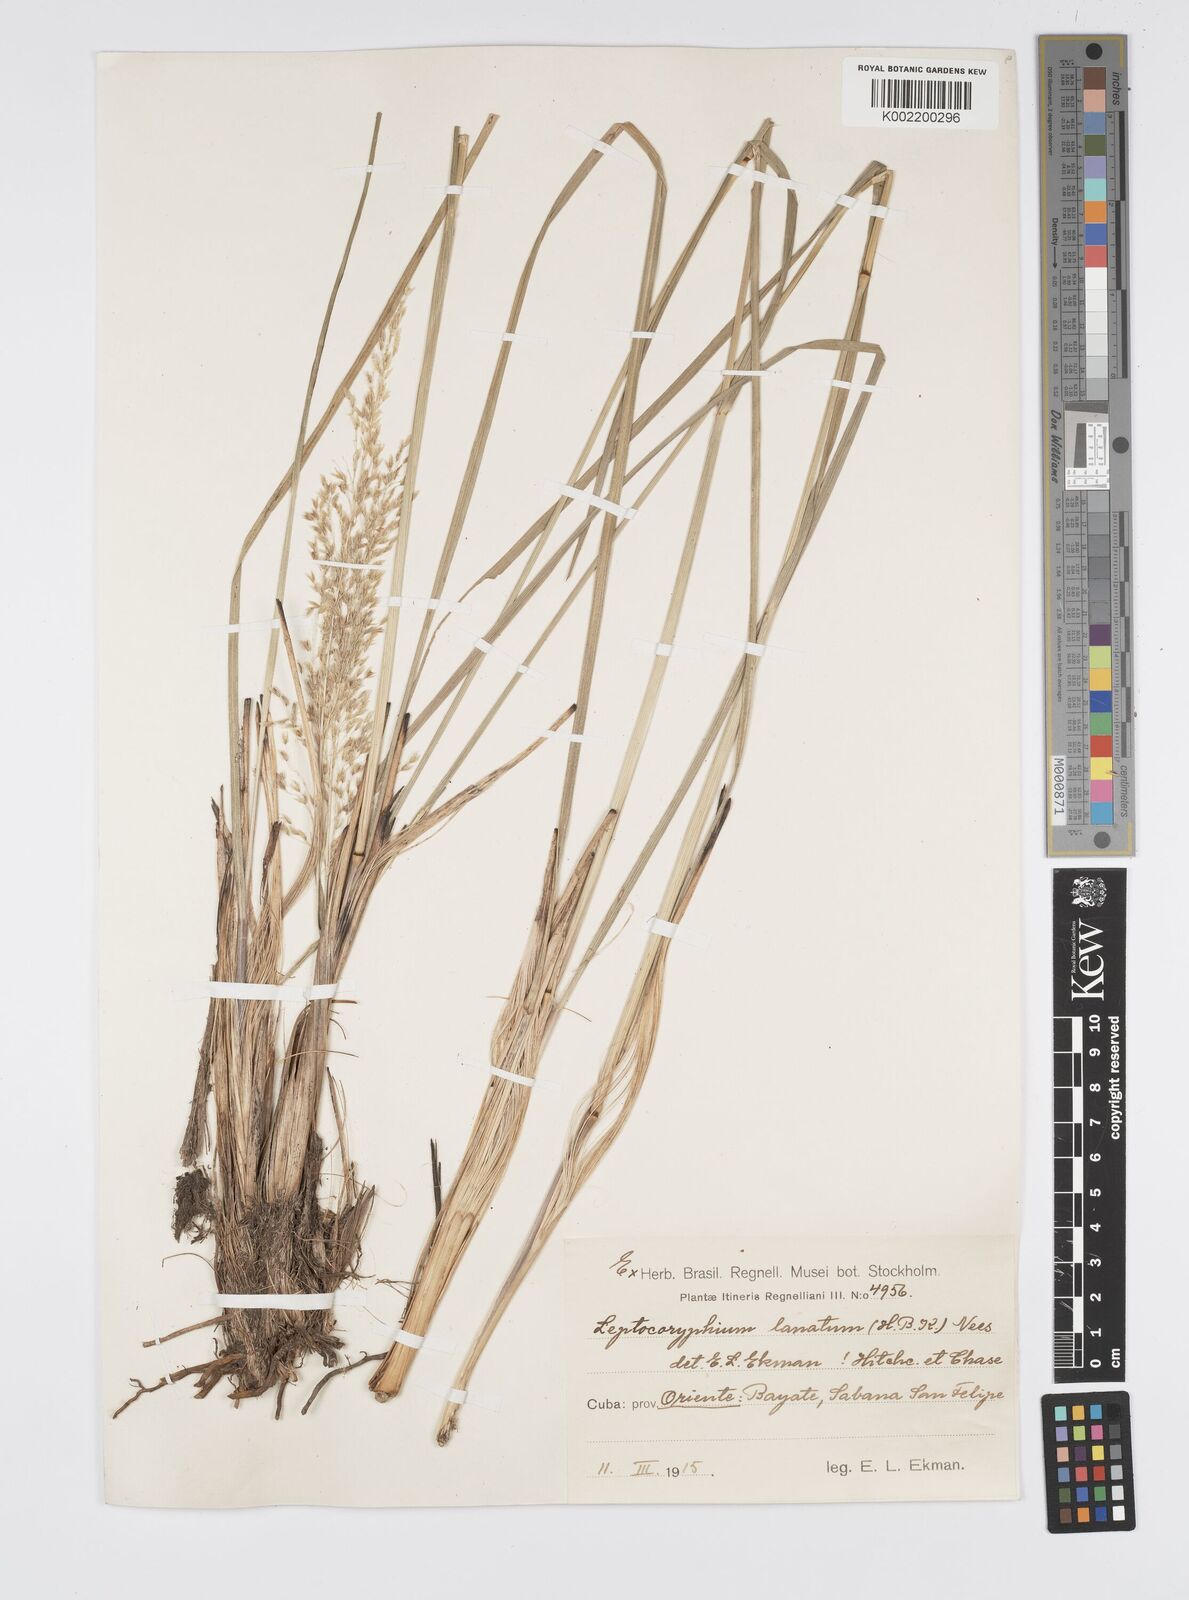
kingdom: Plantae
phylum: Tracheophyta
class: Liliopsida
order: Poales
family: Poaceae
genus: Anthenantia
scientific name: Anthenantia lanata
